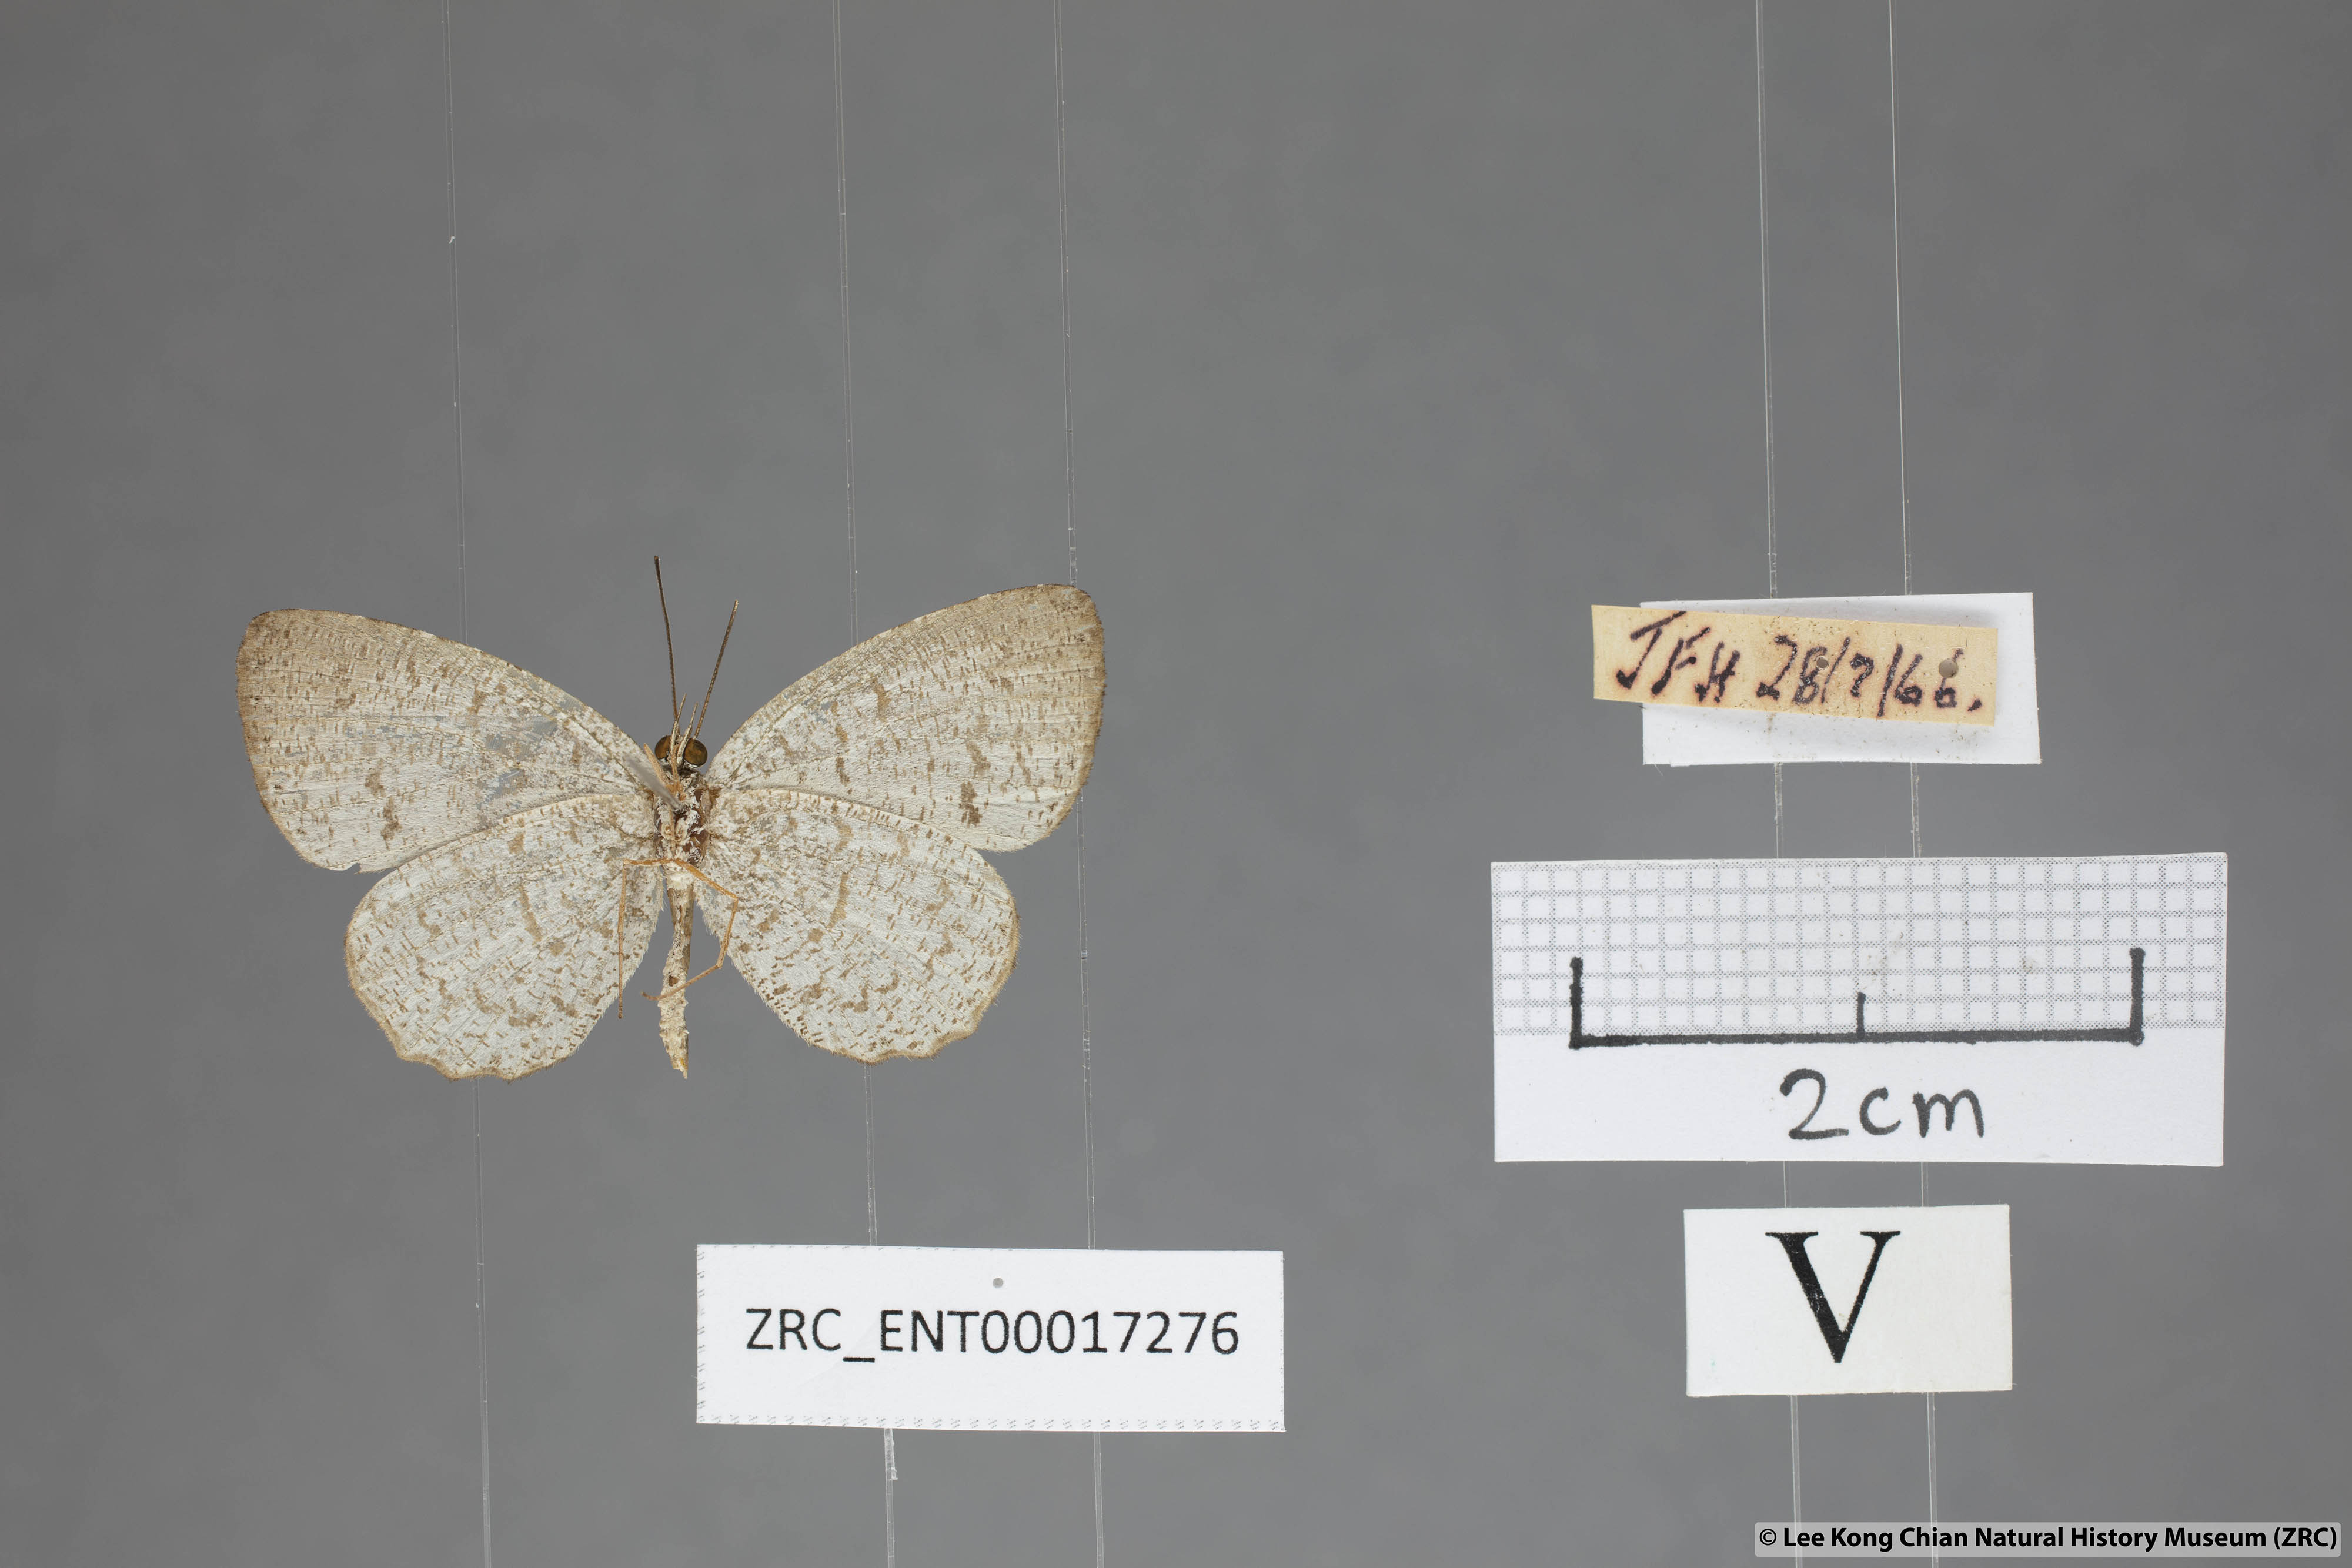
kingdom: Animalia
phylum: Arthropoda
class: Insecta
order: Lepidoptera
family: Lycaenidae
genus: Allotinus
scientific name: Allotinus portunus
